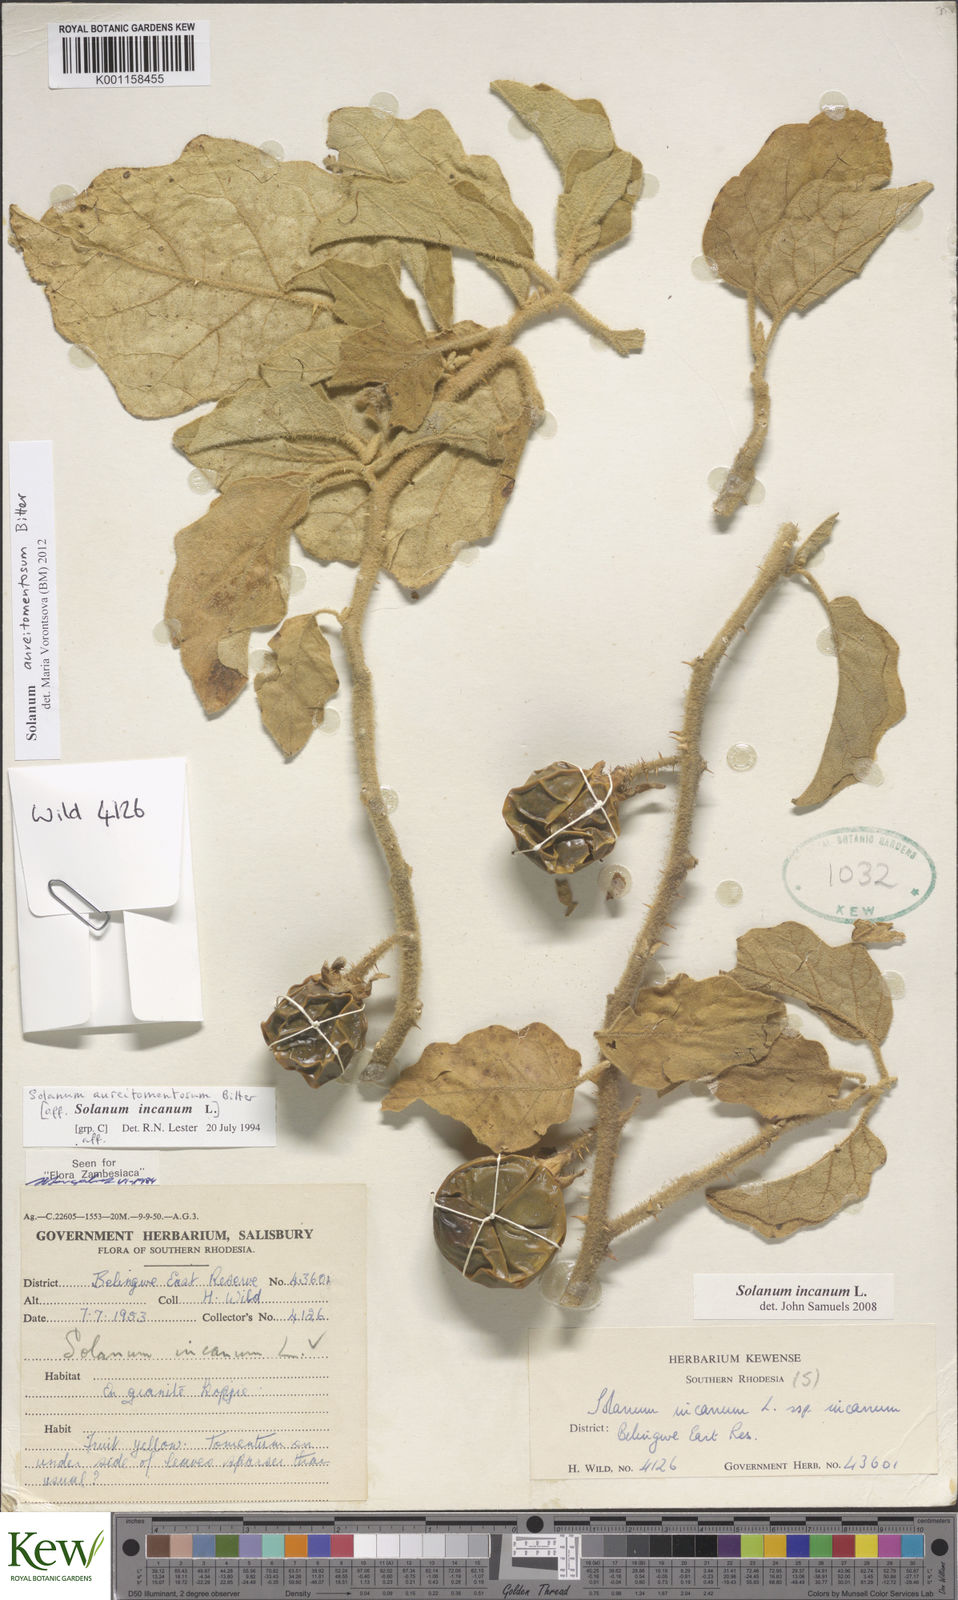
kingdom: Plantae
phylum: Tracheophyta
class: Magnoliopsida
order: Solanales
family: Solanaceae
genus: Solanum
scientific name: Solanum aureitomentosum
